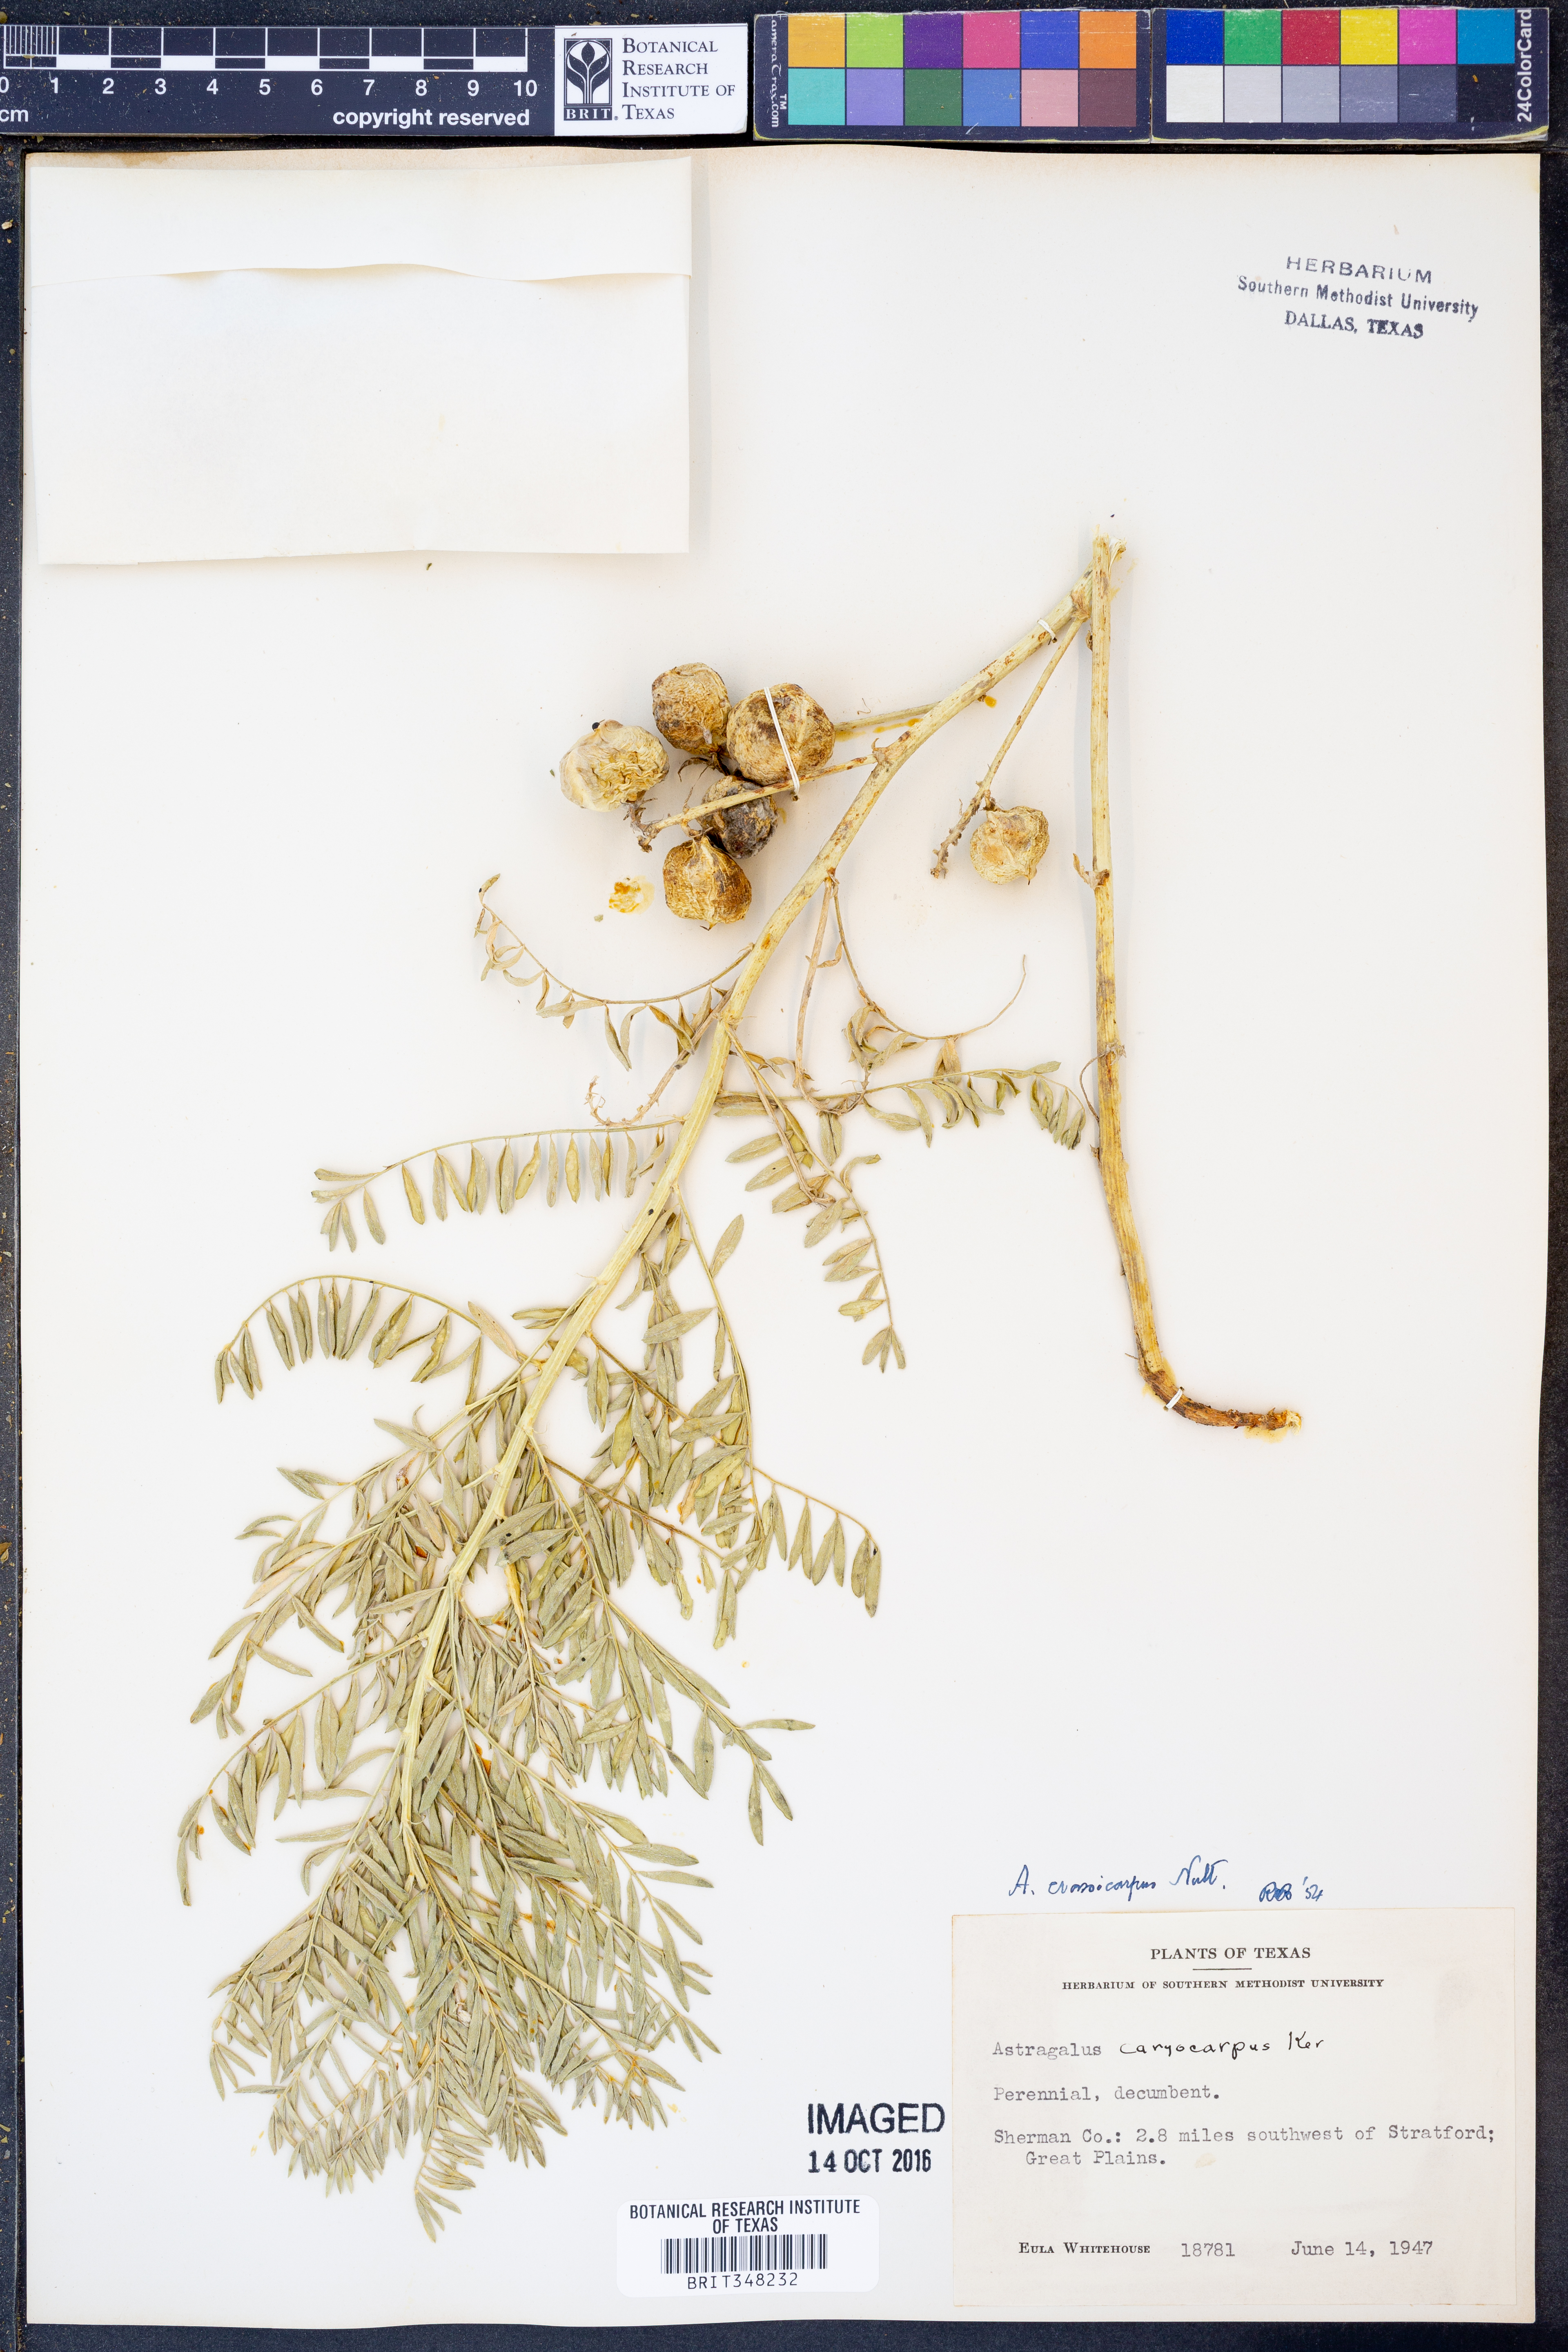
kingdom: Plantae
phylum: Tracheophyta
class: Magnoliopsida
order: Fabales
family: Fabaceae
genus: Astragalus
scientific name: Astragalus crassicarpus
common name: Ground-plum milk-vetch
